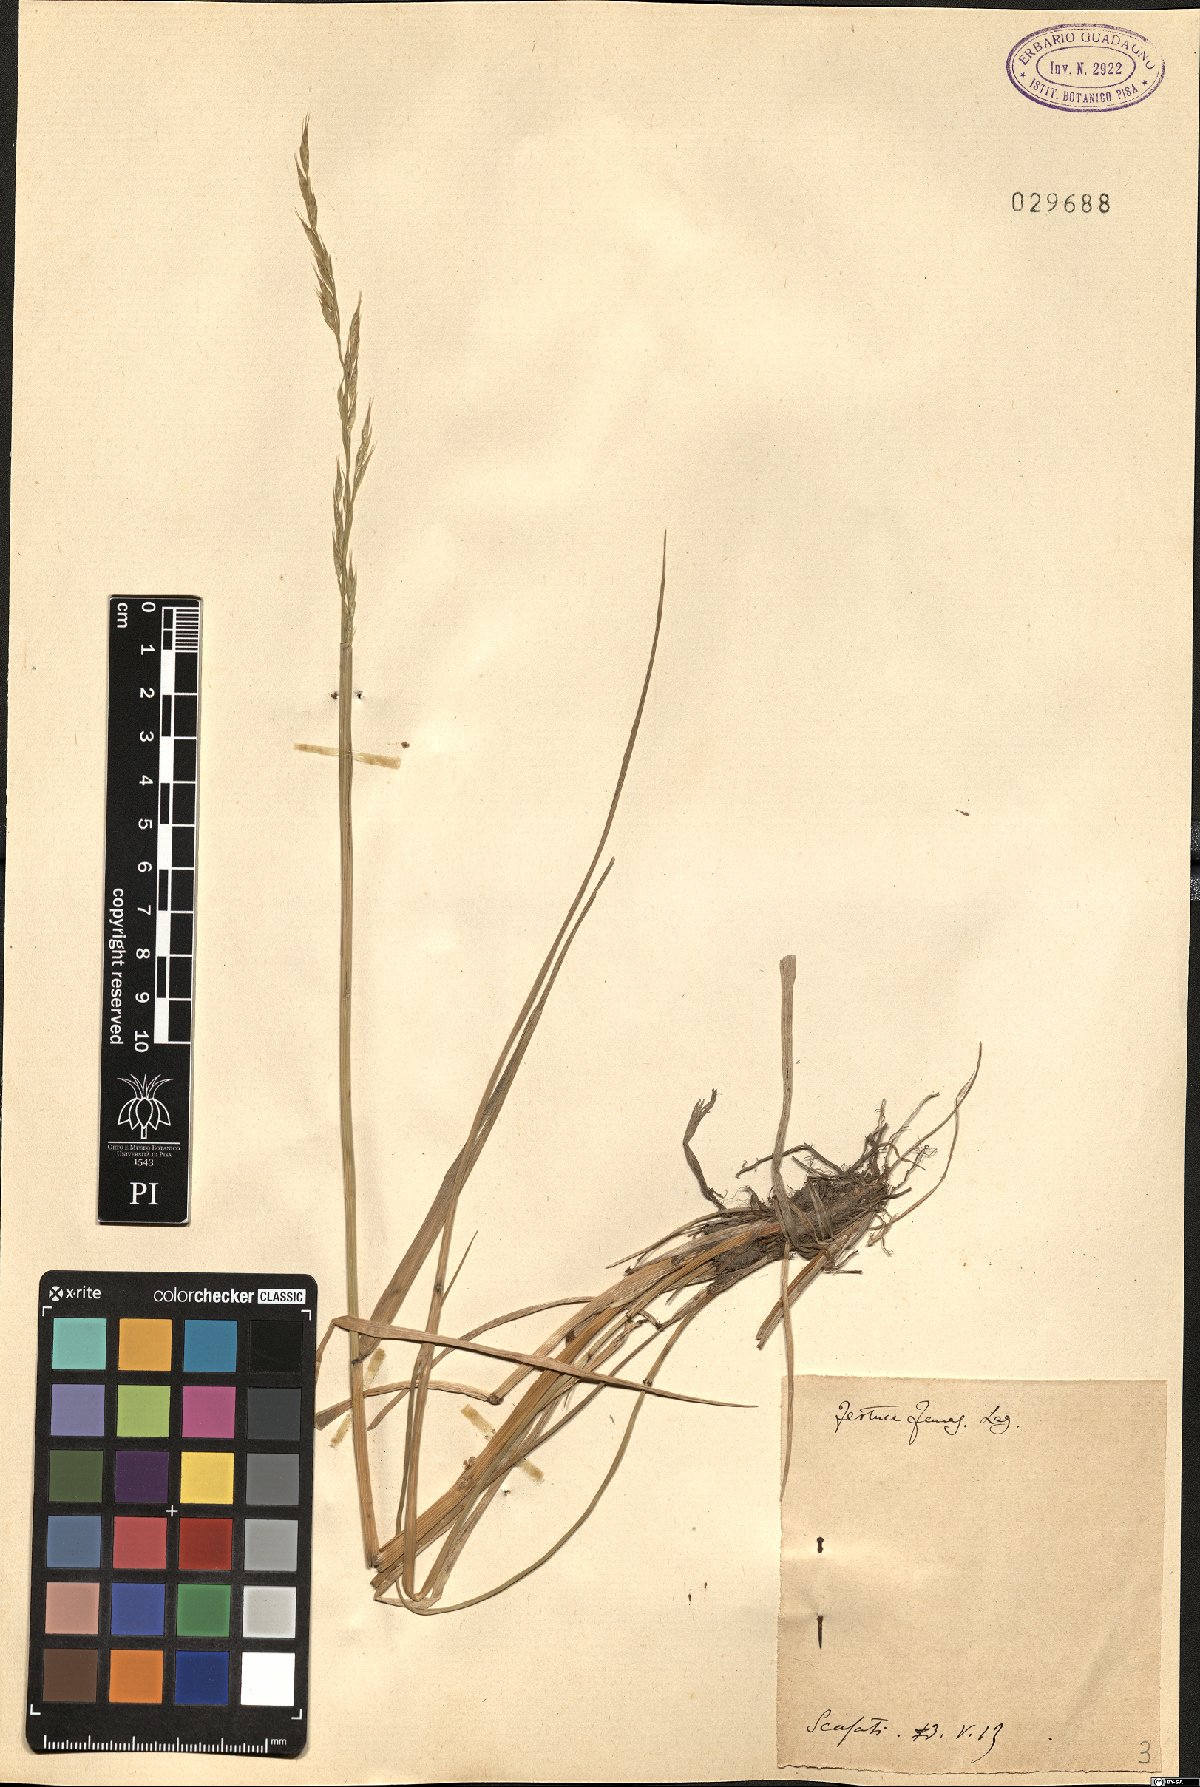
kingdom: Plantae
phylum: Tracheophyta
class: Liliopsida
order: Poales
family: Poaceae
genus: Lolium
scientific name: Lolium interruptum
